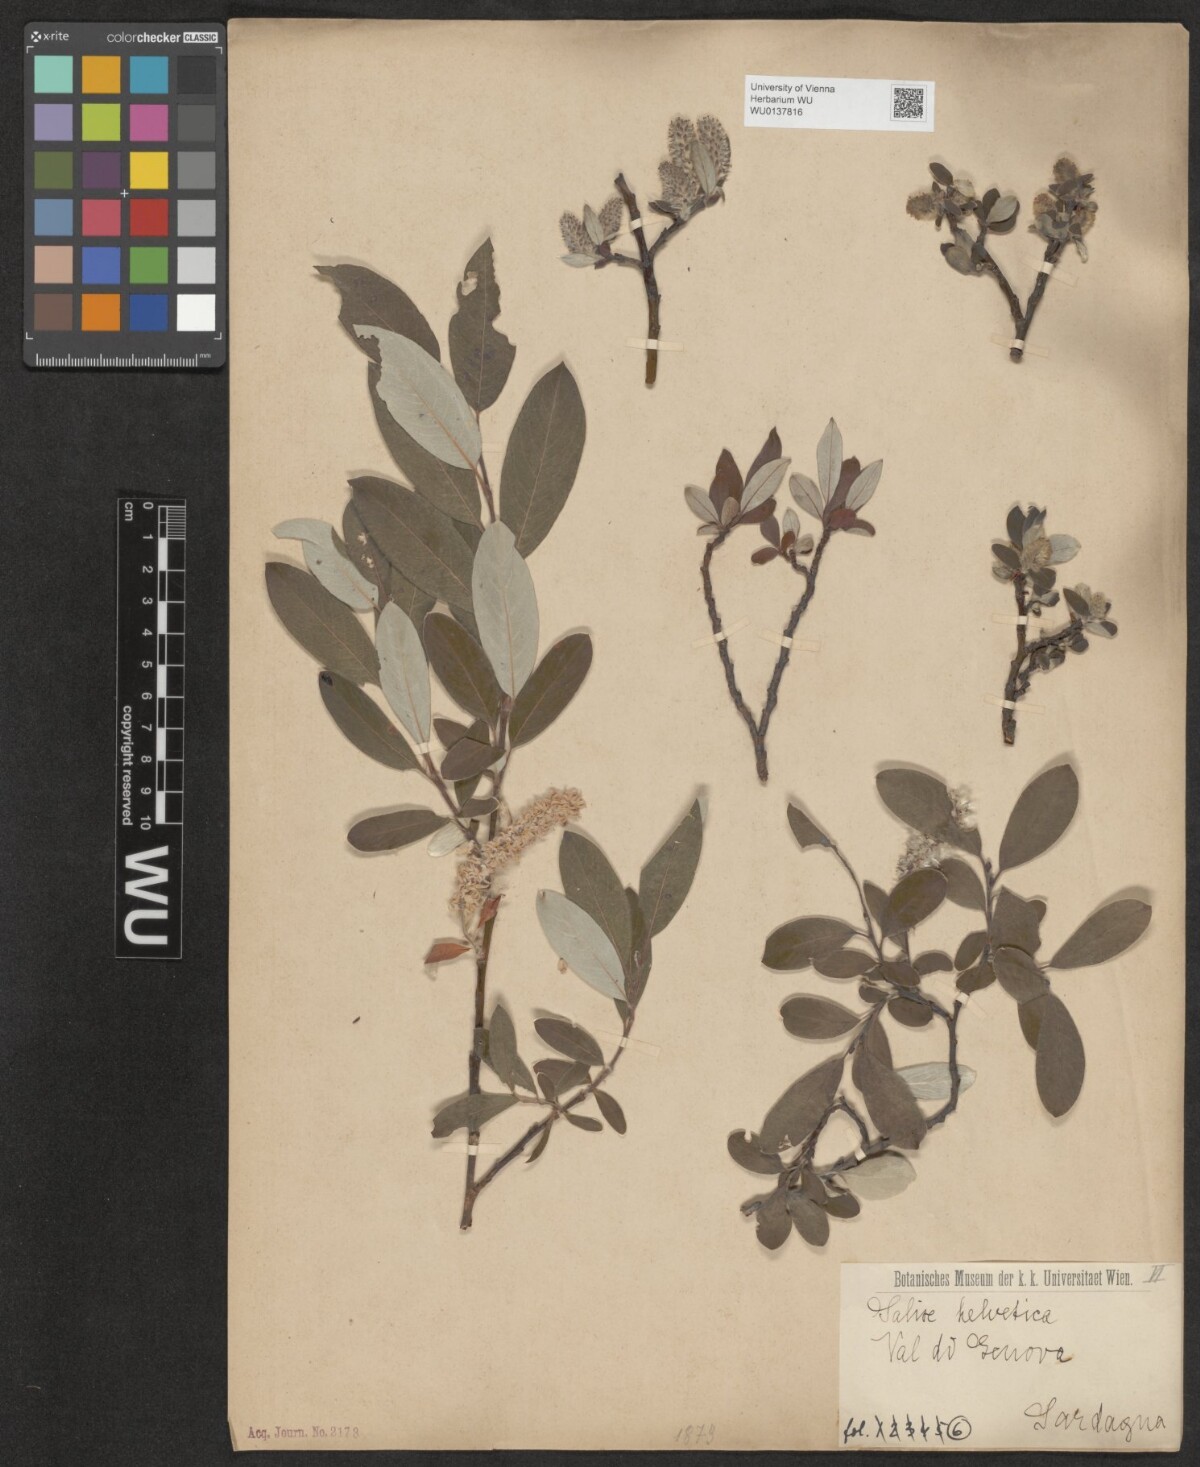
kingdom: Plantae
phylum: Tracheophyta
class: Magnoliopsida
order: Malpighiales
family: Salicaceae
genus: Salix
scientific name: Salix helvetica
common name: Swiss willow
